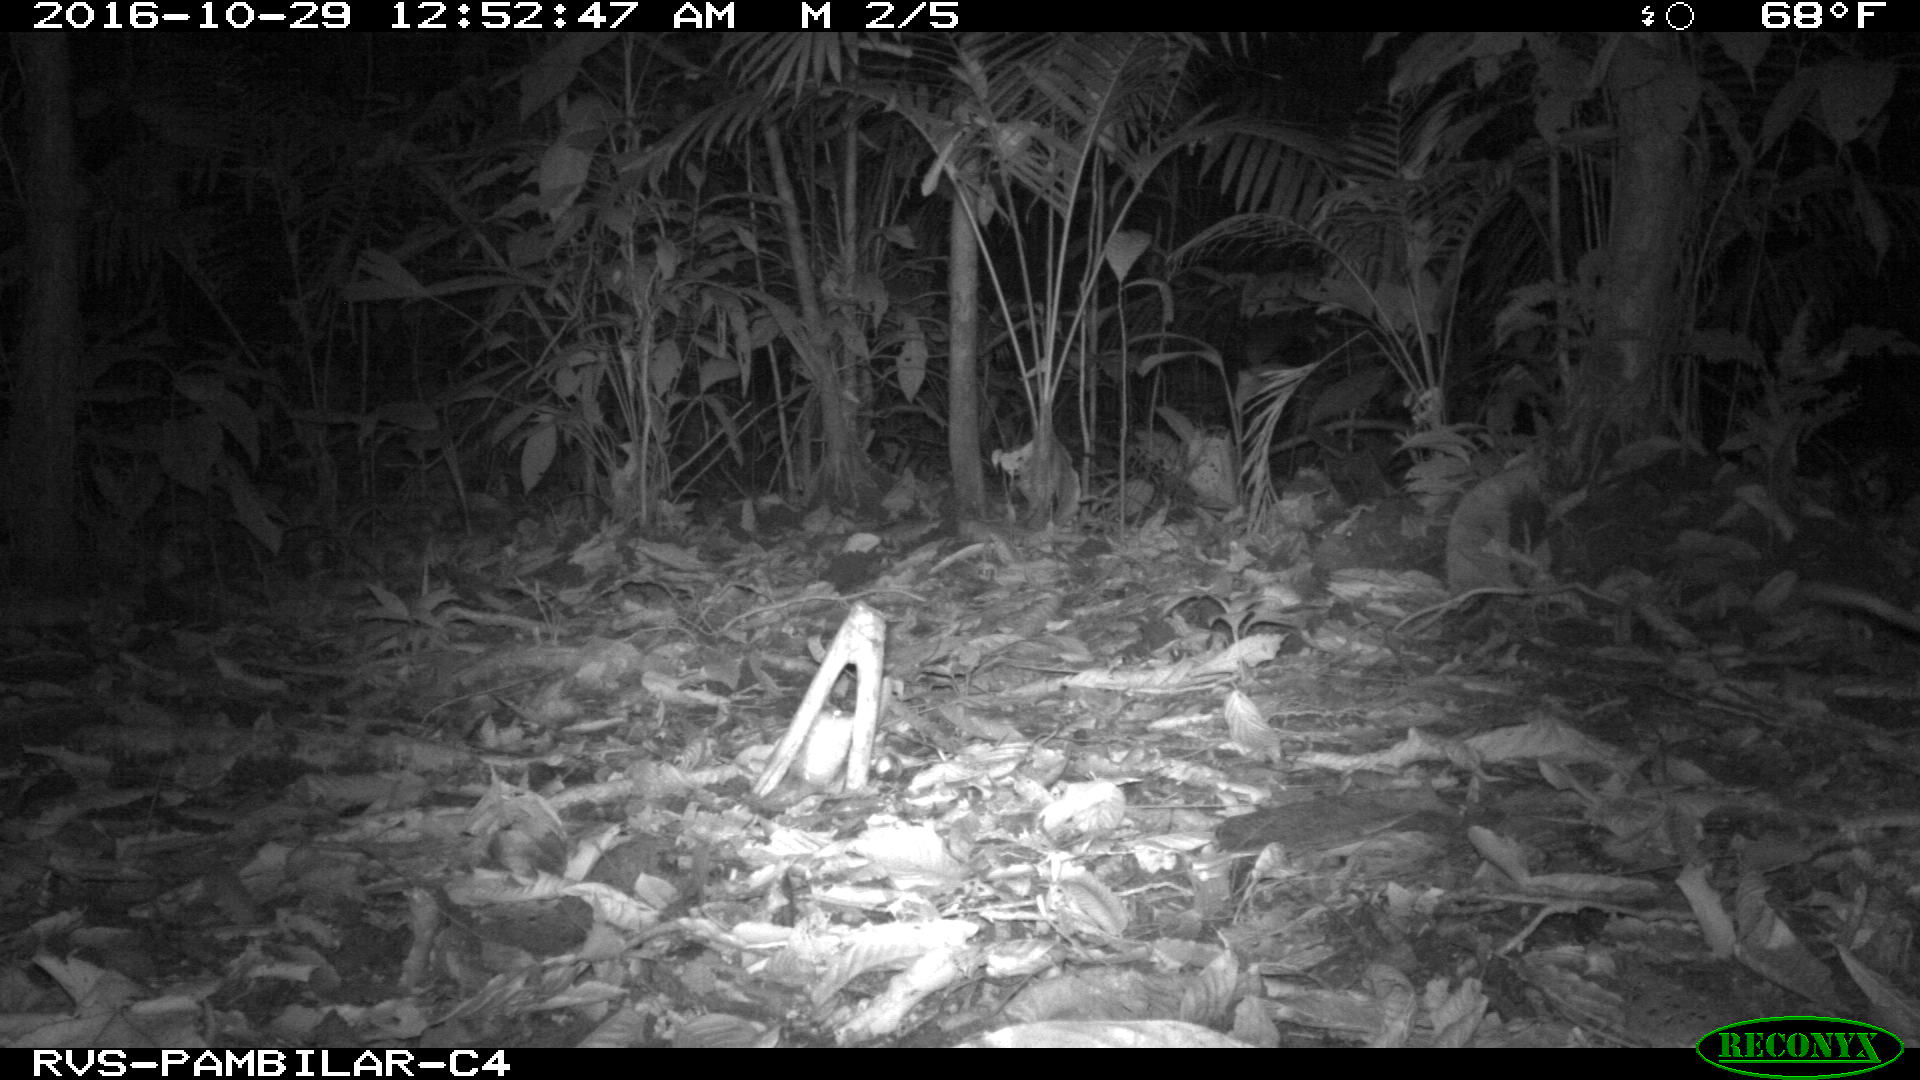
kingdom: Animalia
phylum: Chordata
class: Mammalia
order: Didelphimorphia
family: Didelphidae
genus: Didelphis
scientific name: Didelphis marsupialis
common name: Common opossum
